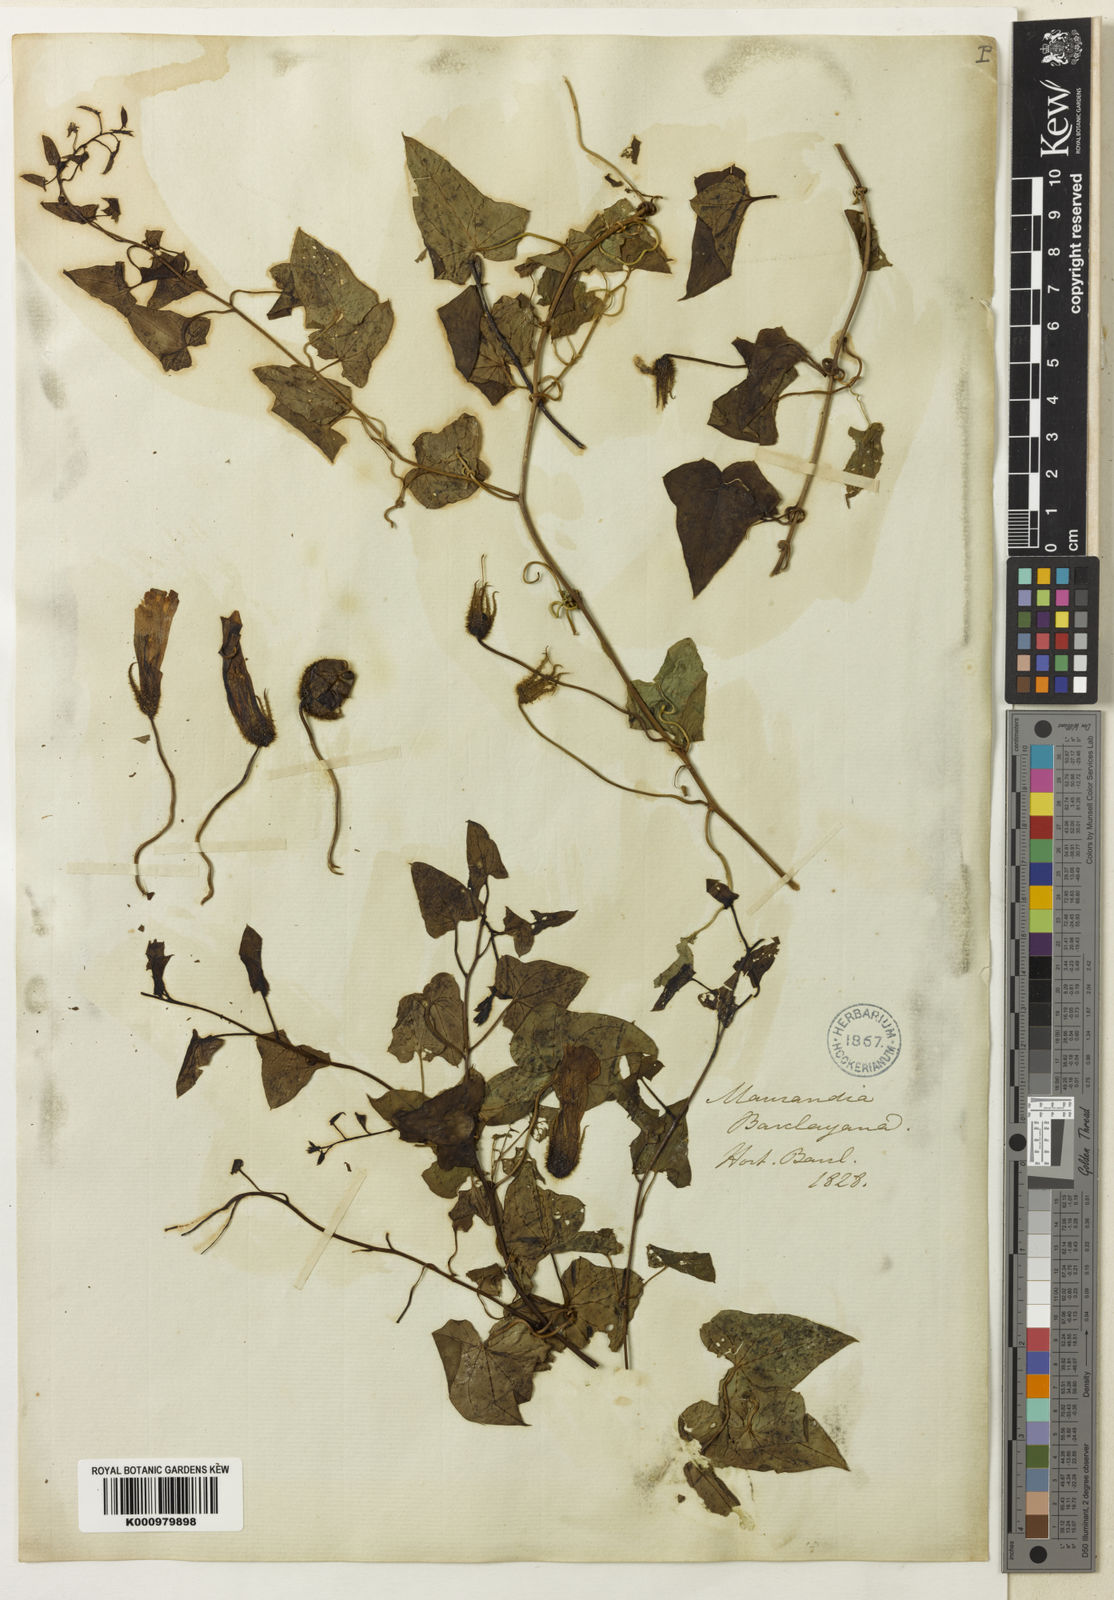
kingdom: Plantae
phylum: Tracheophyta
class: Magnoliopsida
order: Lamiales
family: Plantaginaceae
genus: Maurandya
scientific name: Maurandya barclayana
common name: Mexican viper
